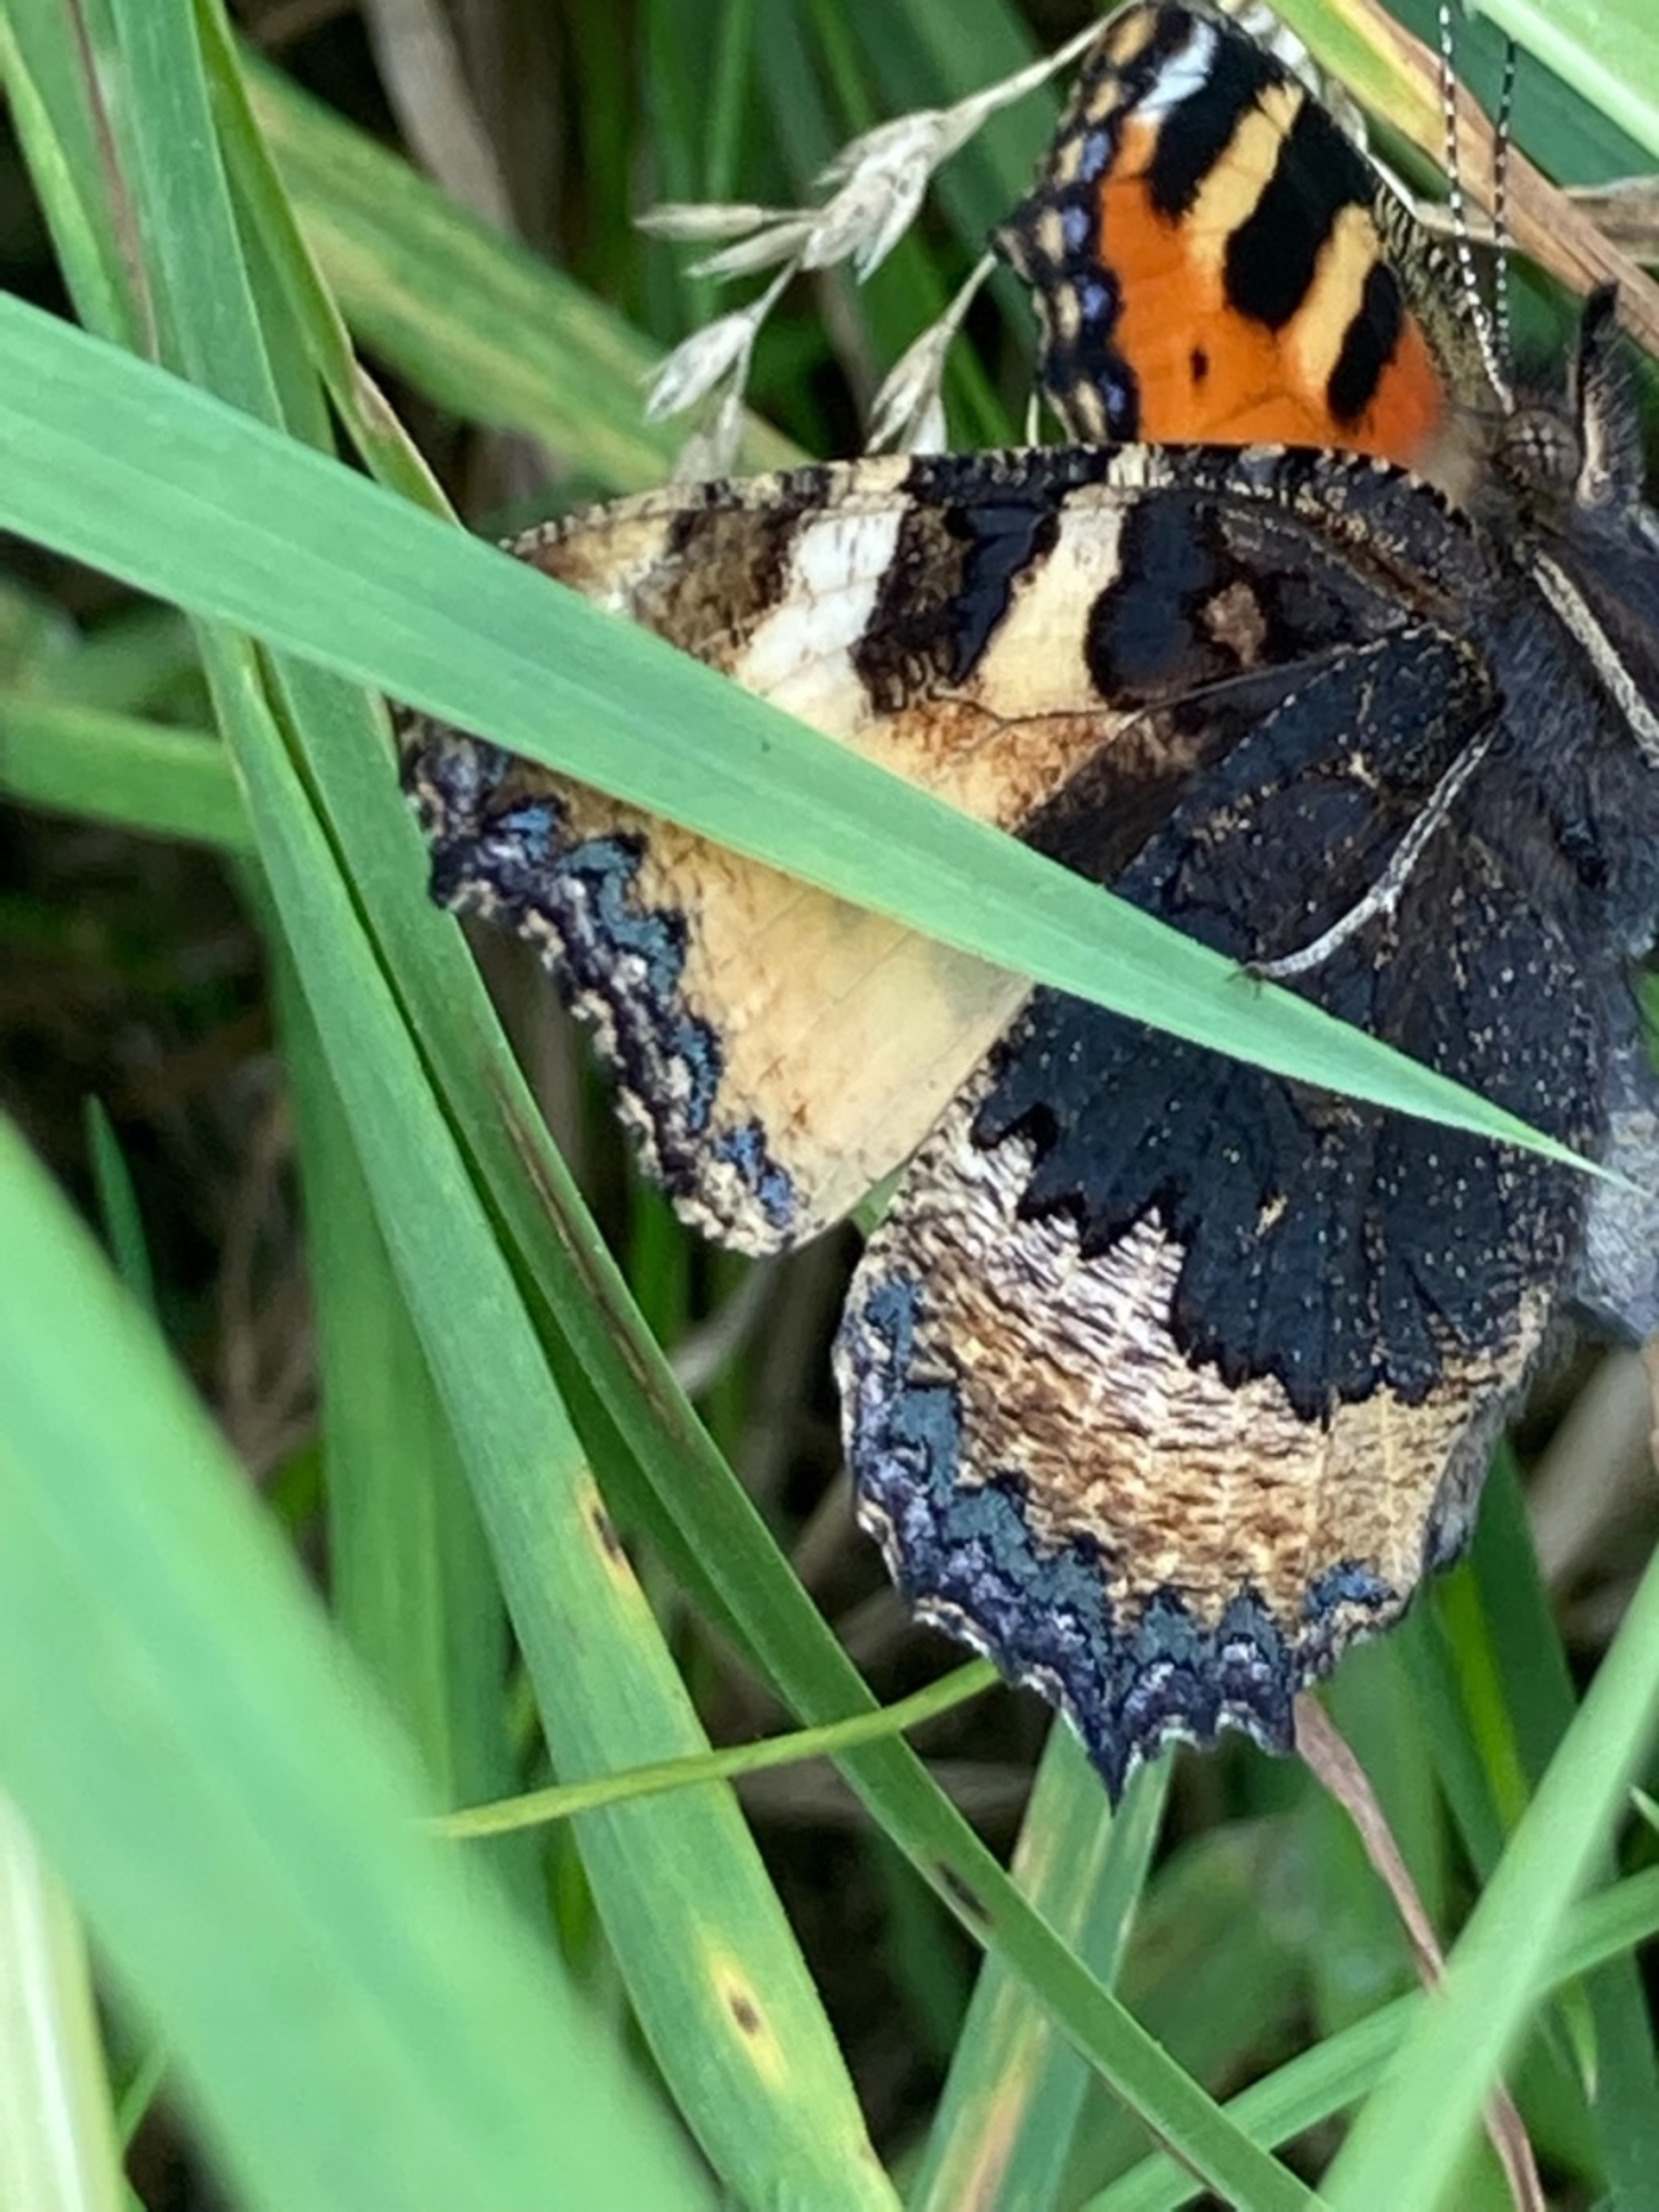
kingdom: Animalia
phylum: Arthropoda
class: Insecta
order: Lepidoptera
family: Nymphalidae
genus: Aglais
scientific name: Aglais urticae
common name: Nældens takvinge
